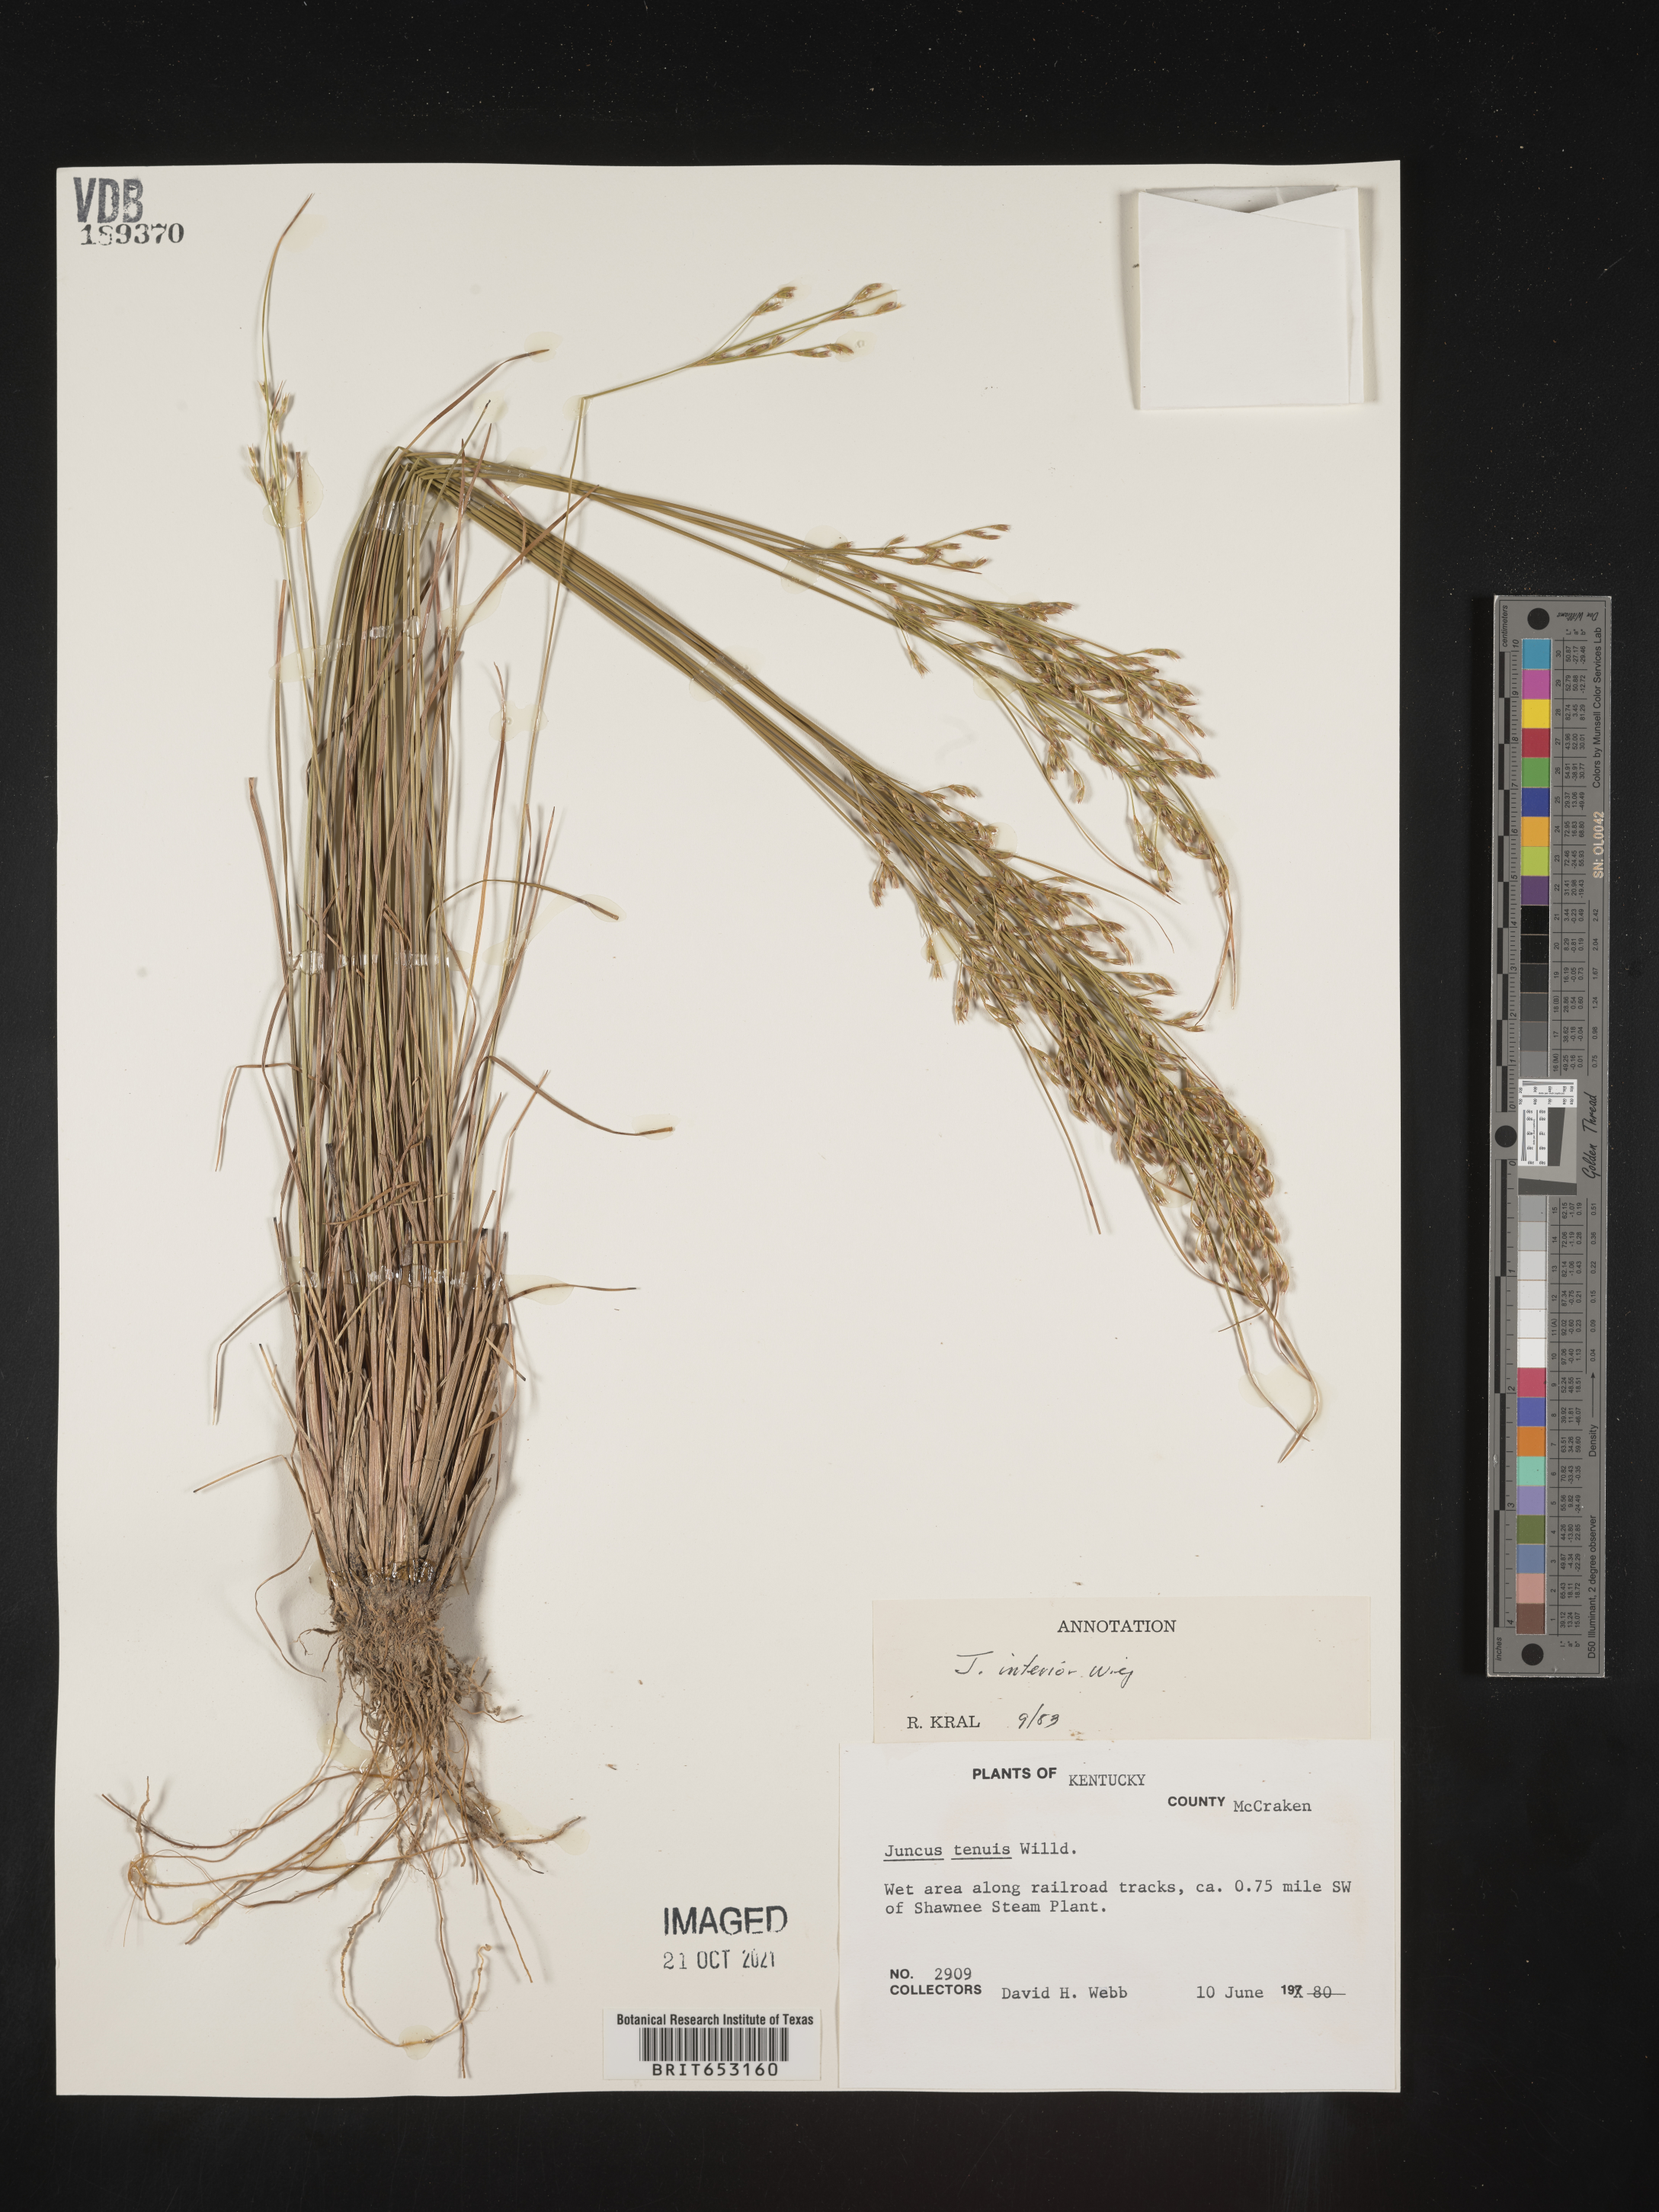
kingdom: Plantae
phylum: Tracheophyta
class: Liliopsida
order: Poales
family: Juncaceae
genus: Juncus
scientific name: Juncus interior
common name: Interior rush
